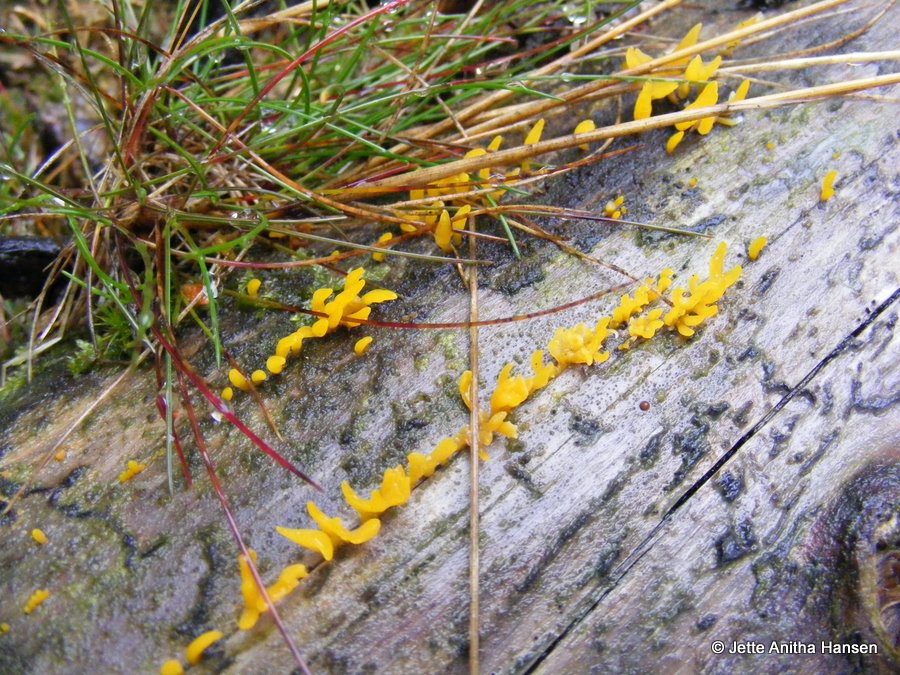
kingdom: Fungi
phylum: Basidiomycota
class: Dacrymycetes
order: Dacrymycetales
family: Dacrymycetaceae
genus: Calocera
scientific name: Calocera furcata
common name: fyrre-guldgaffel
